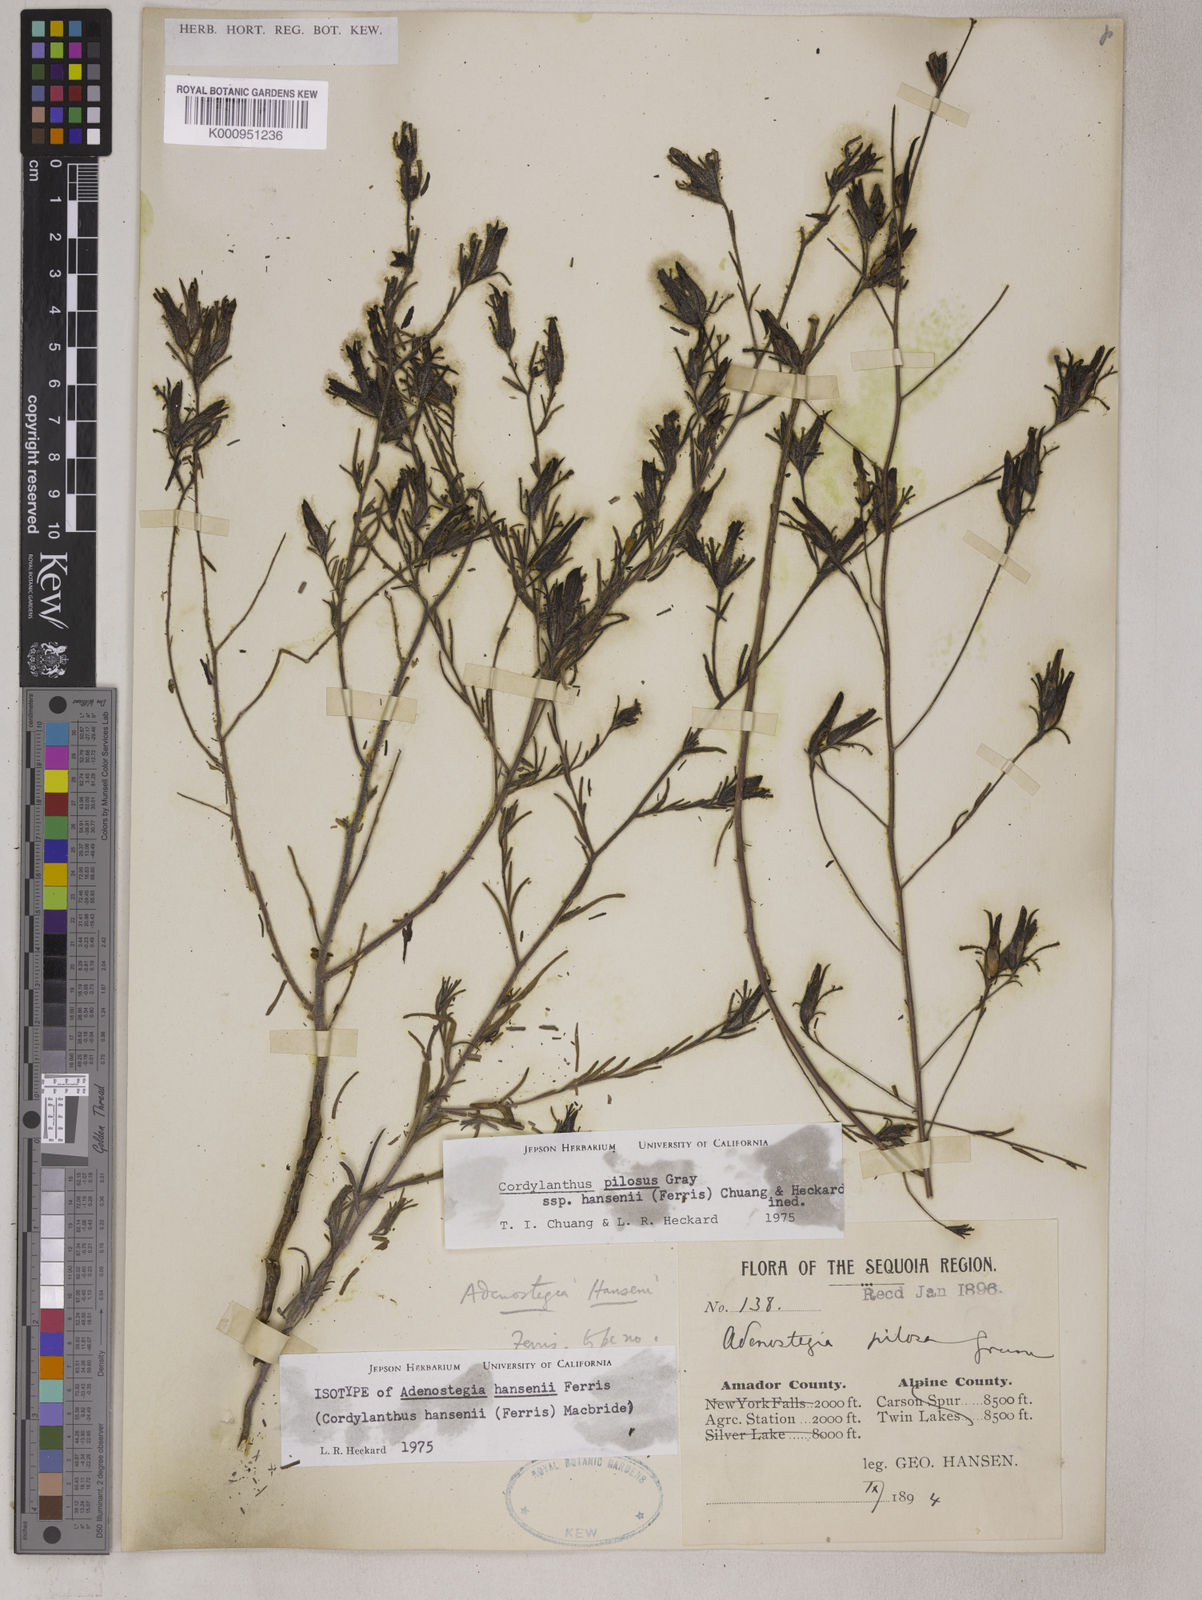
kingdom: Plantae
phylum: Tracheophyta
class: Magnoliopsida
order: Lamiales
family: Orobanchaceae
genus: Cordylanthus
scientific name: Cordylanthus pilosus
